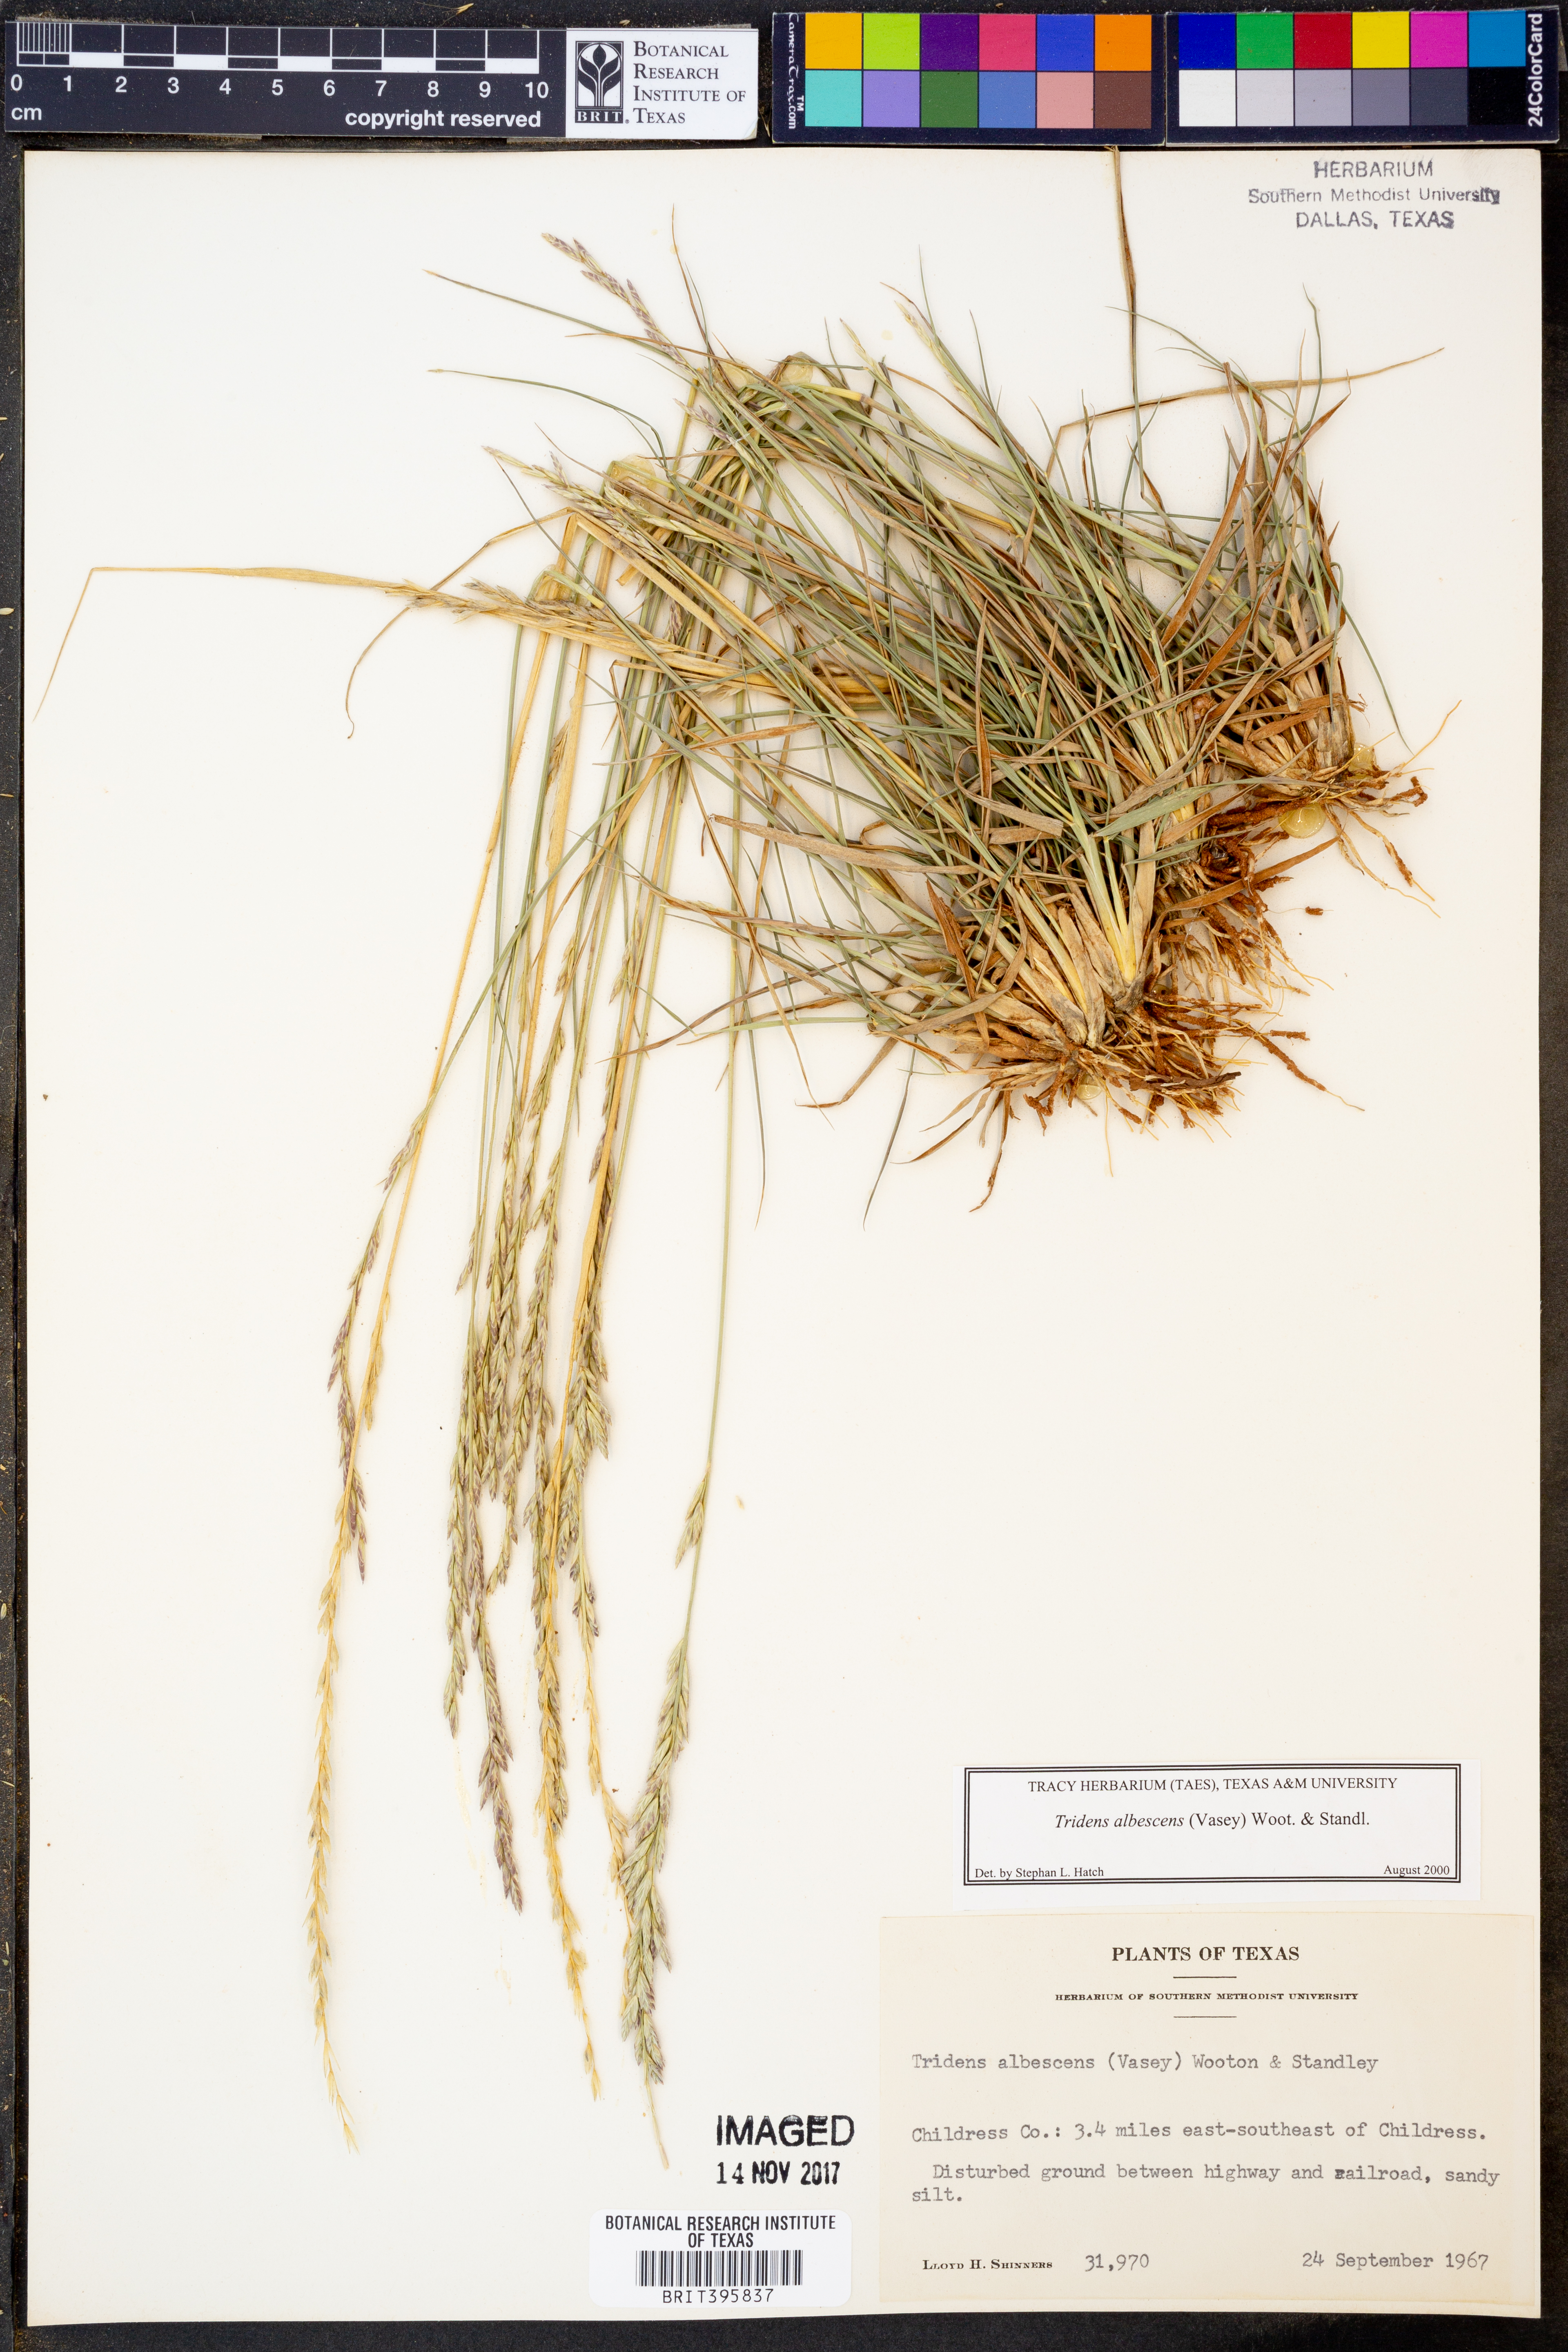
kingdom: Plantae
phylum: Tracheophyta
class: Liliopsida
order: Poales
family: Poaceae
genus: Tridens
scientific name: Tridens albescens
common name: White tridens
